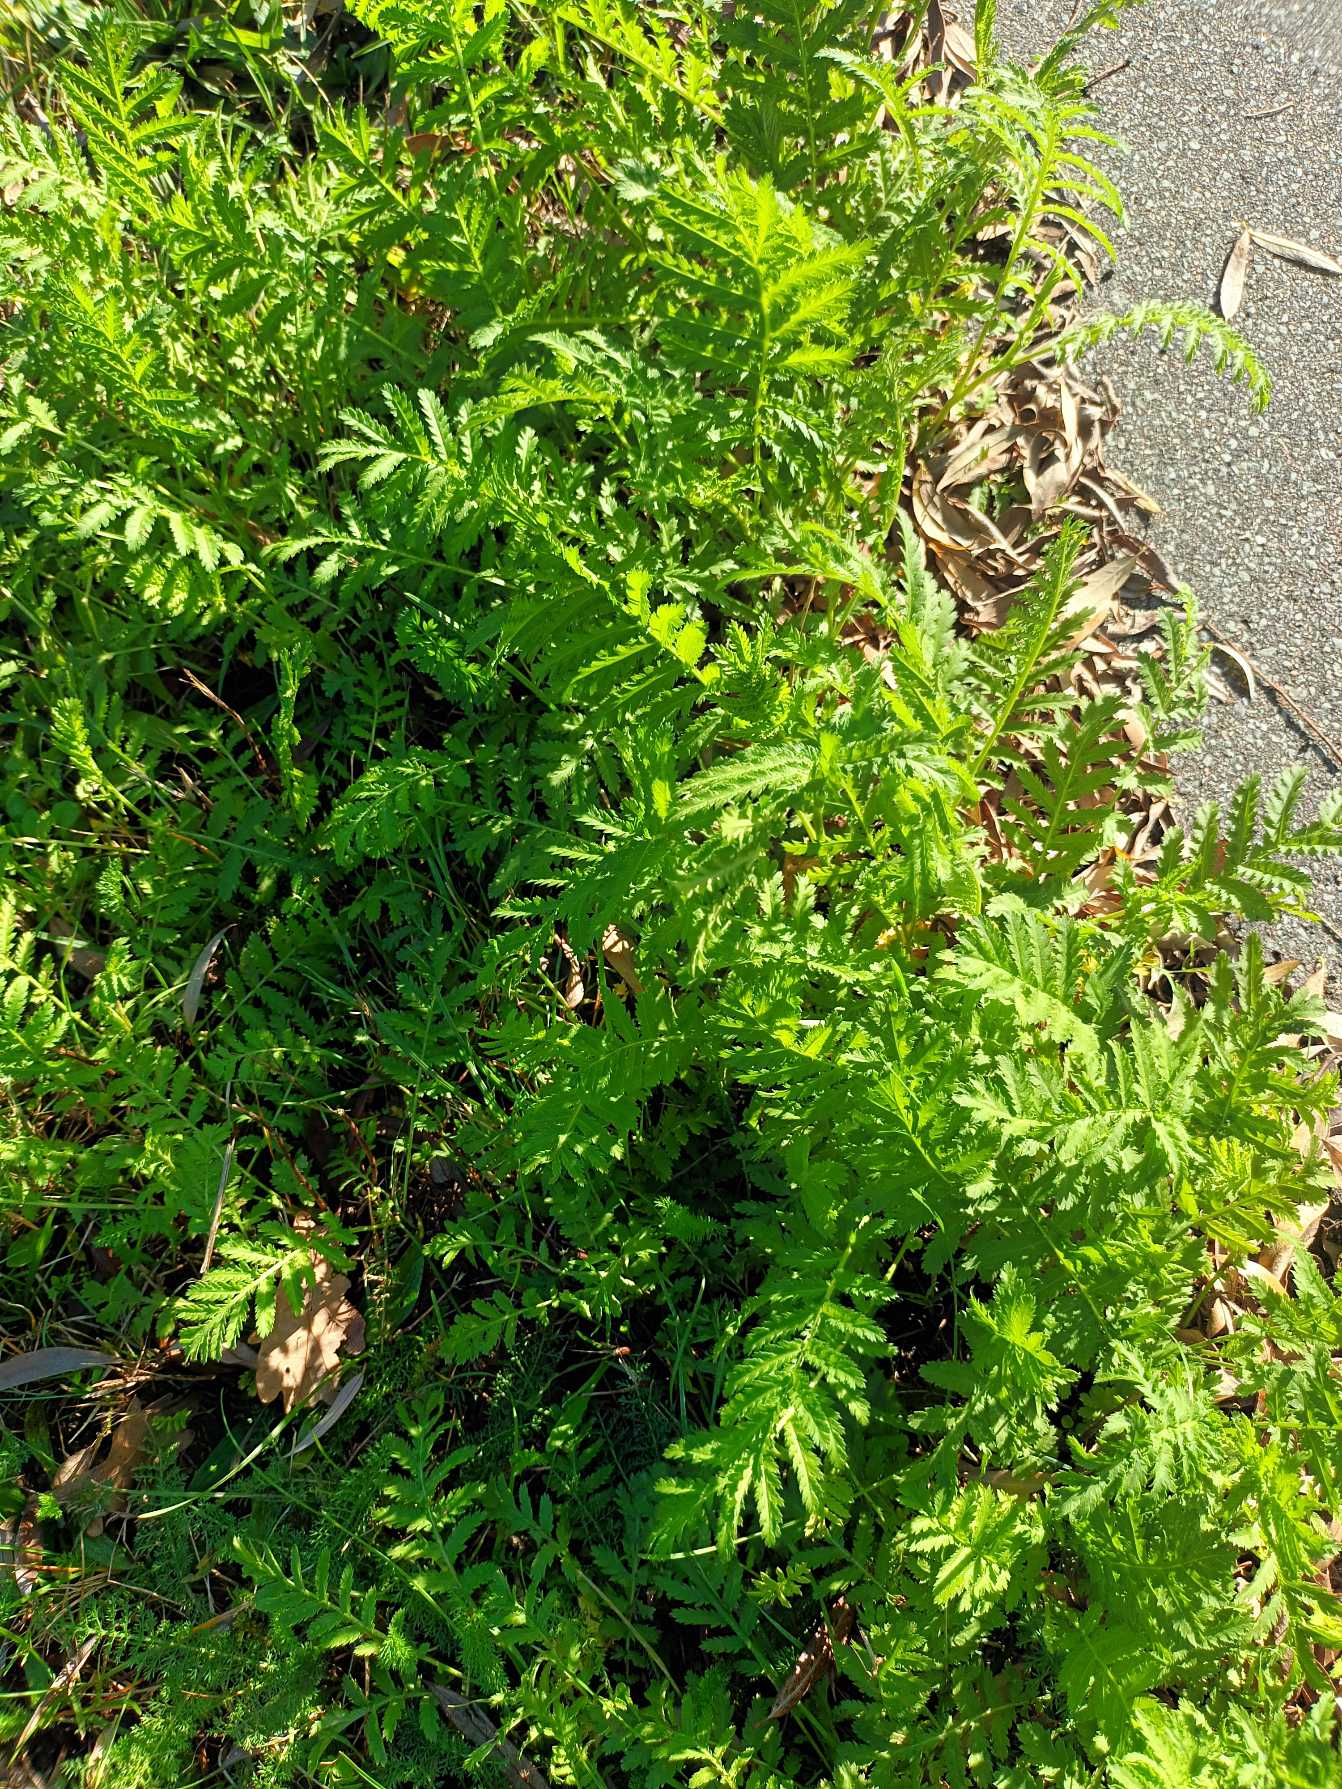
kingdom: Plantae
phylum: Tracheophyta
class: Magnoliopsida
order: Asterales
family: Asteraceae
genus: Tanacetum
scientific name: Tanacetum vulgare
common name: Rejnfan
